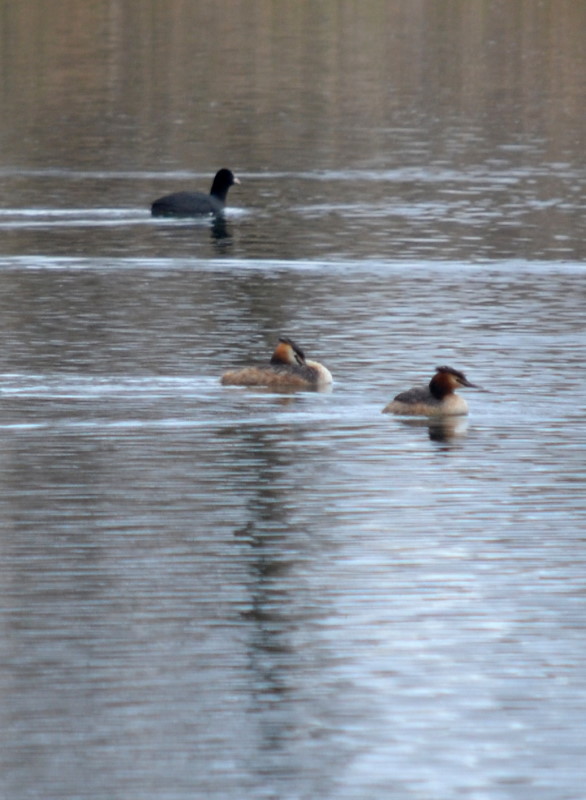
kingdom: Animalia
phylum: Chordata
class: Aves
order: Gruiformes
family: Rallidae
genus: Fulica
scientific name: Fulica atra
